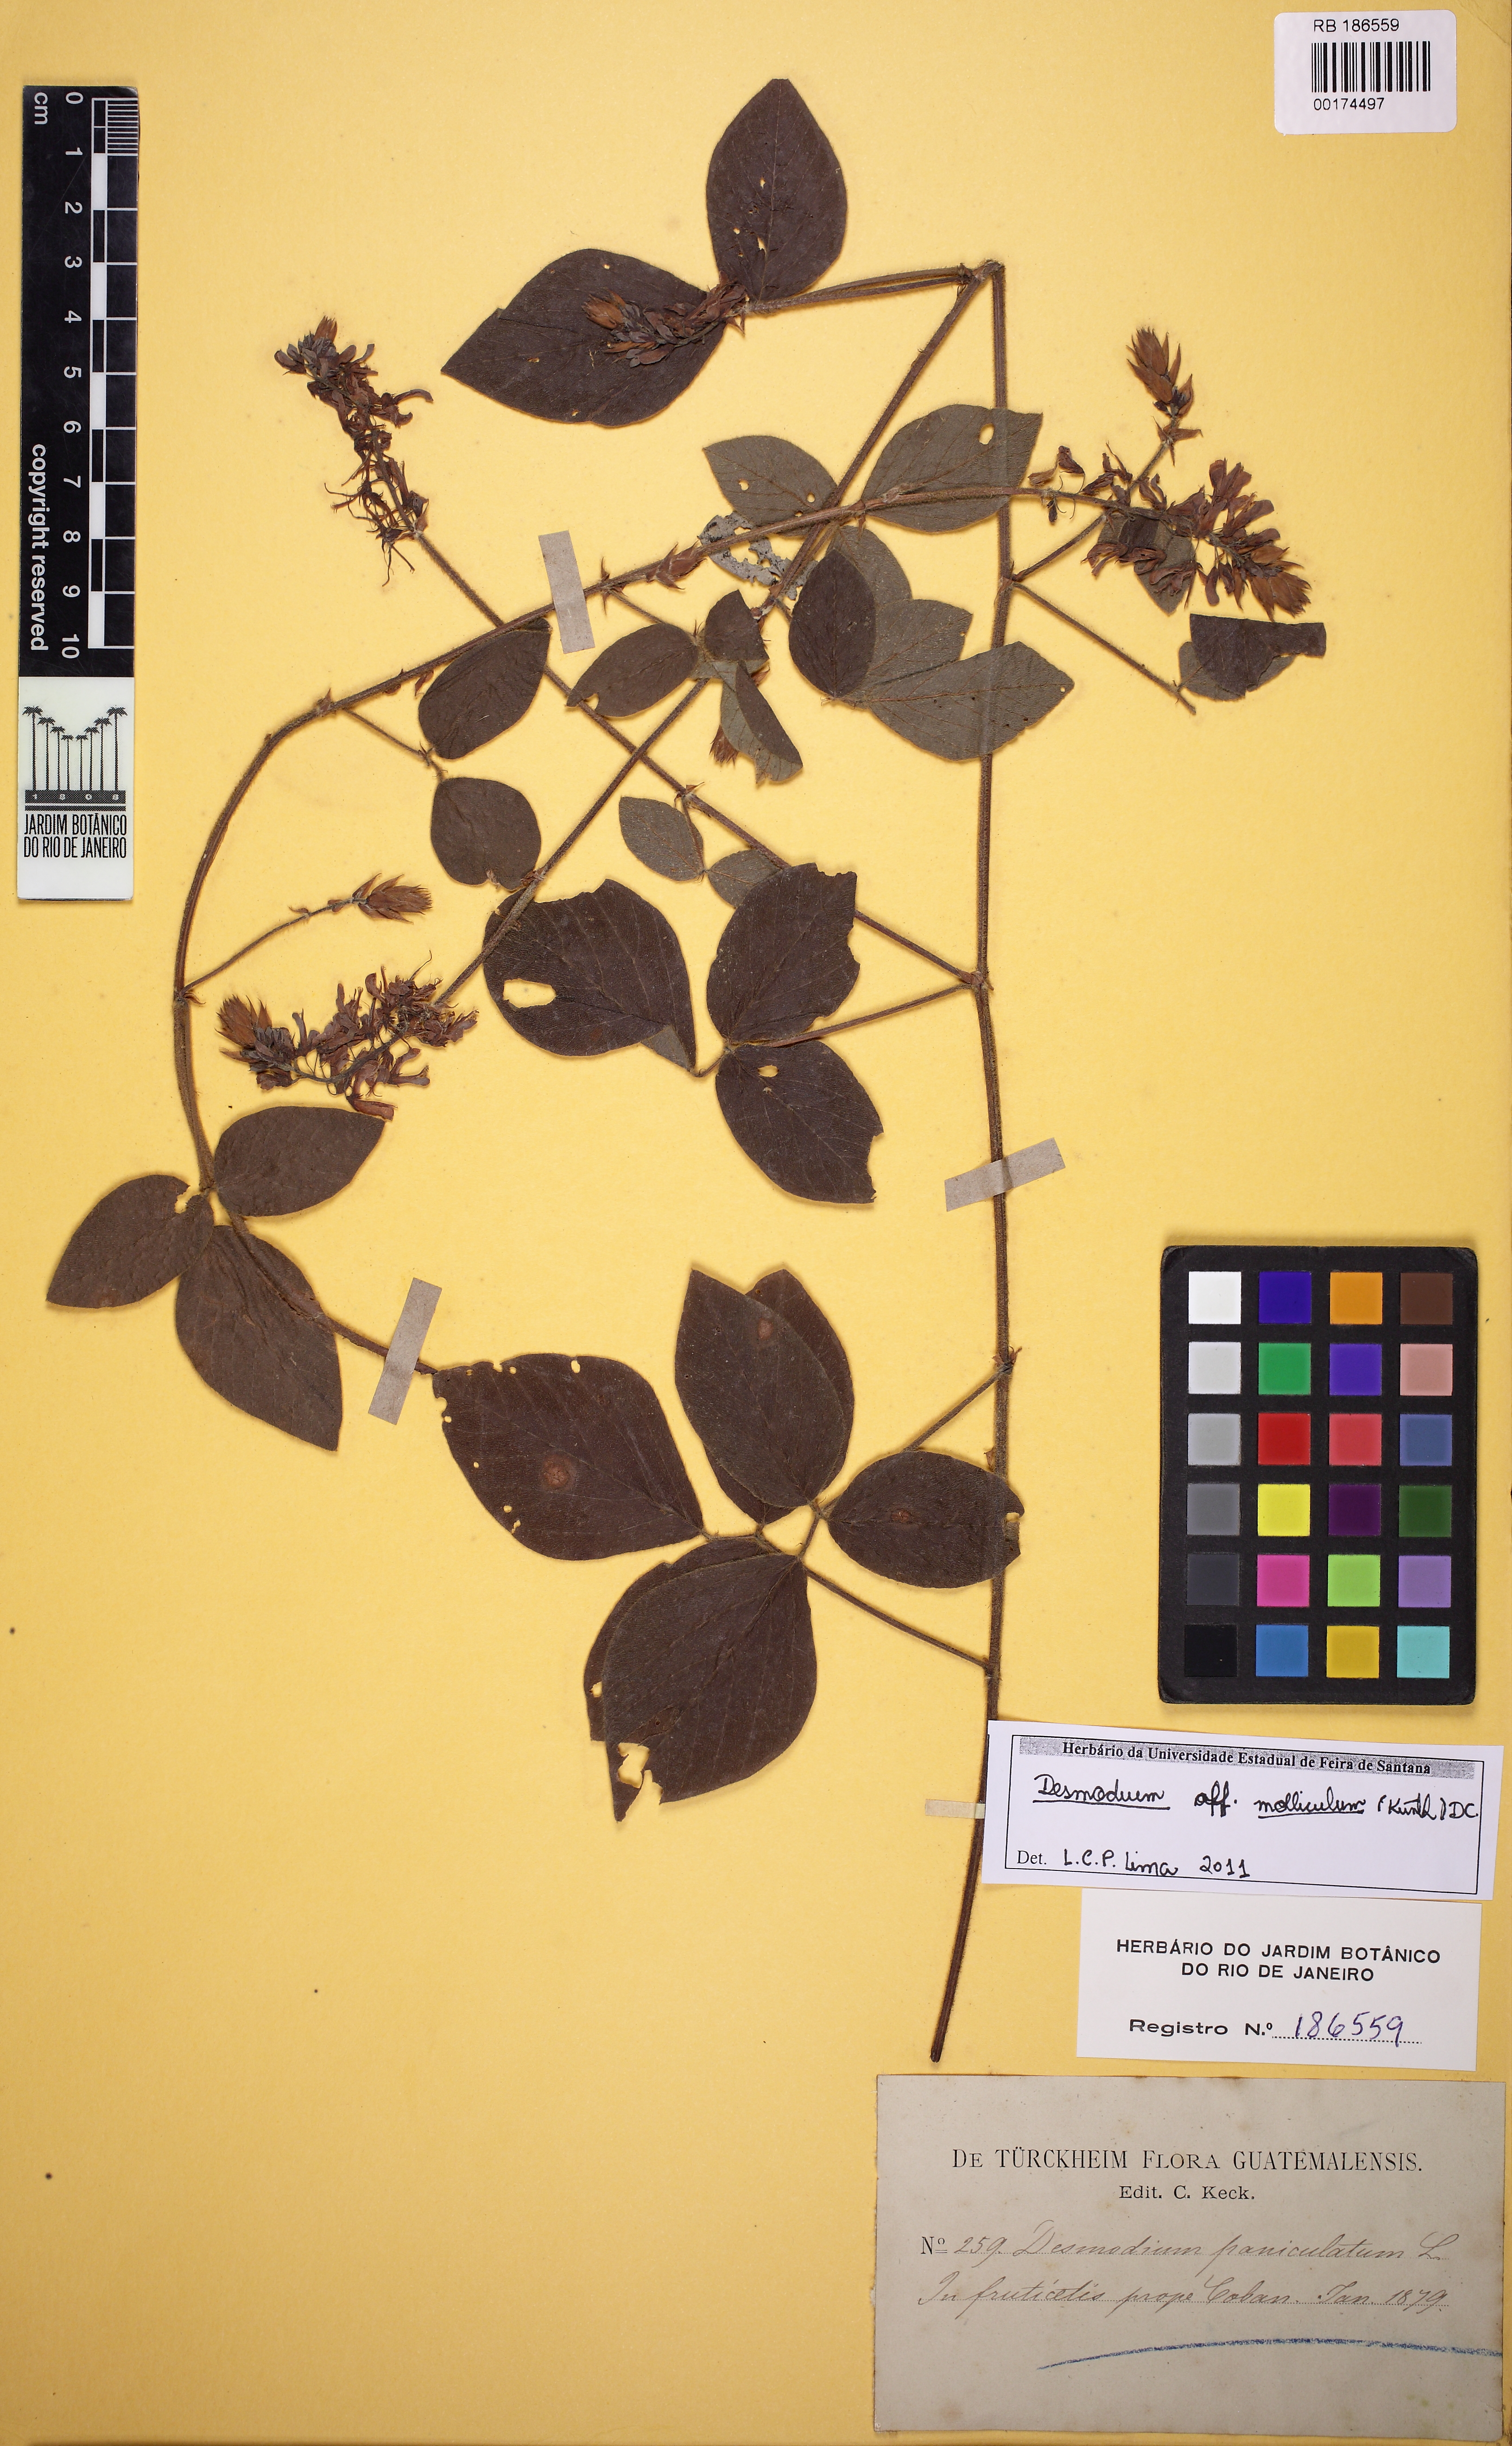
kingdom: Plantae
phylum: Tracheophyta
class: Magnoliopsida
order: Fabales
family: Fabaceae
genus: Desmodium
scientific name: Desmodium molliculum
